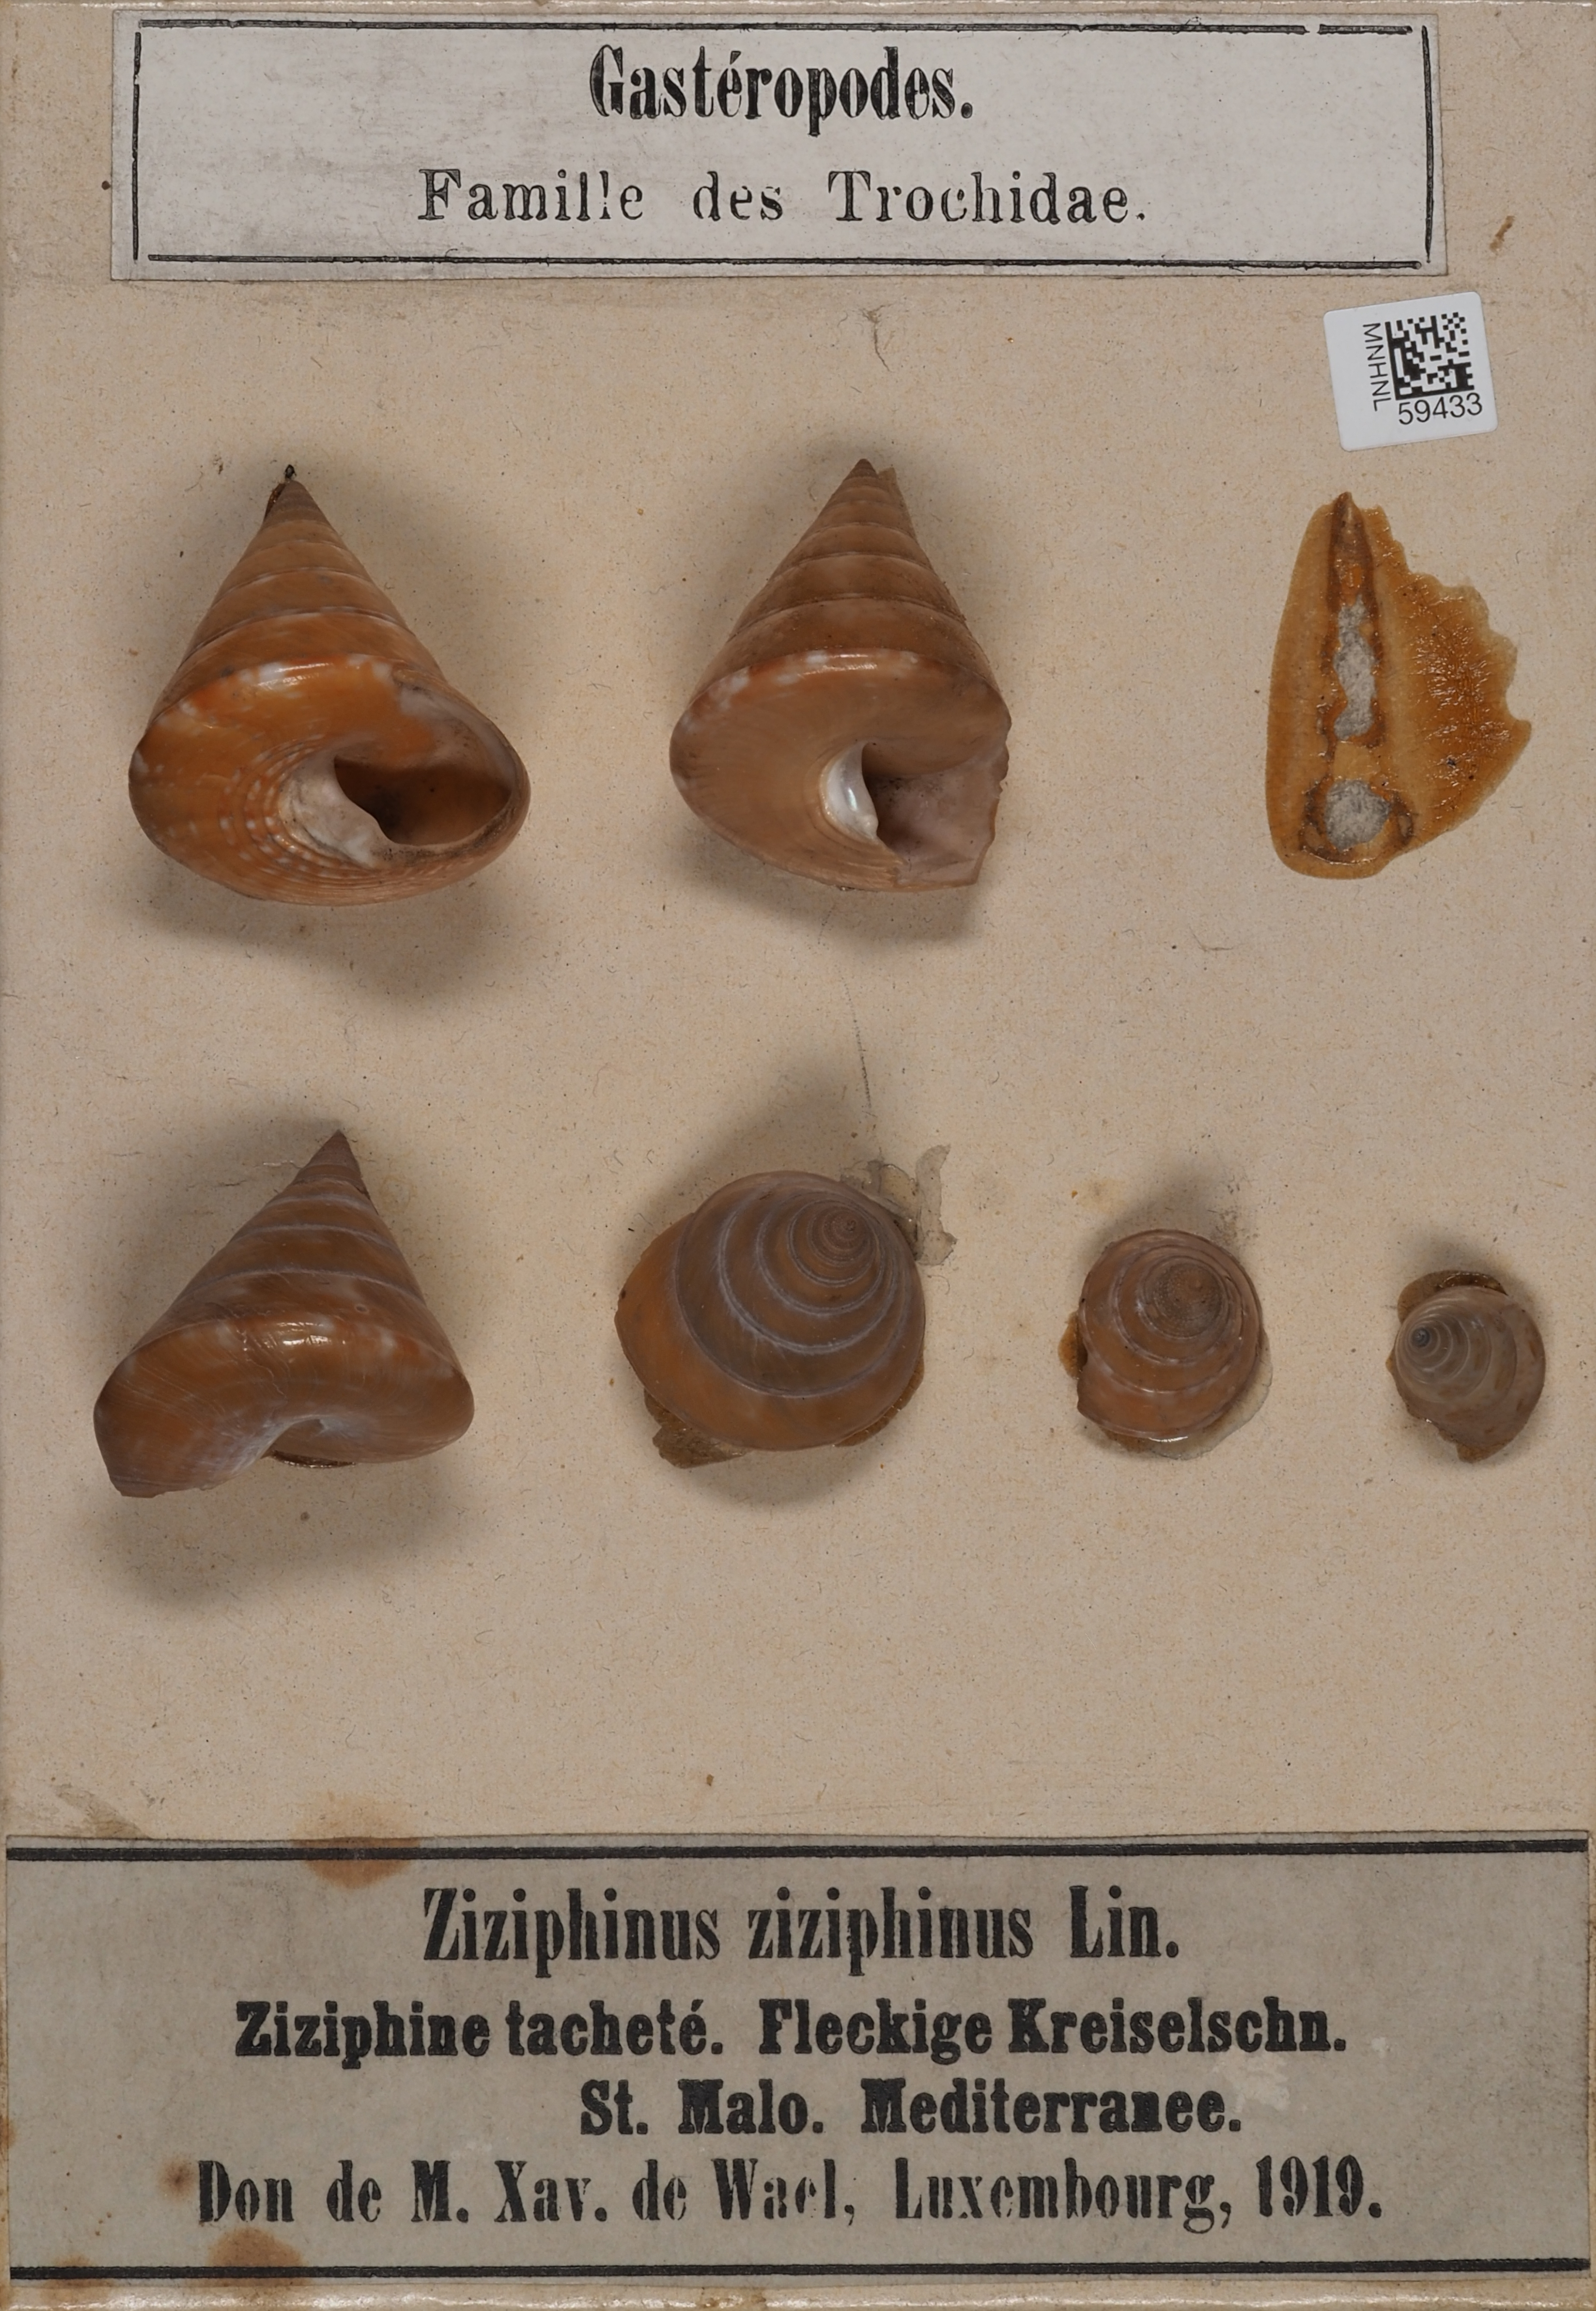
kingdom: Animalia
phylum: Mollusca
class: Gastropoda
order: Trochida
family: Calliostomatidae
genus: Calliostoma
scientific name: Calliostoma
